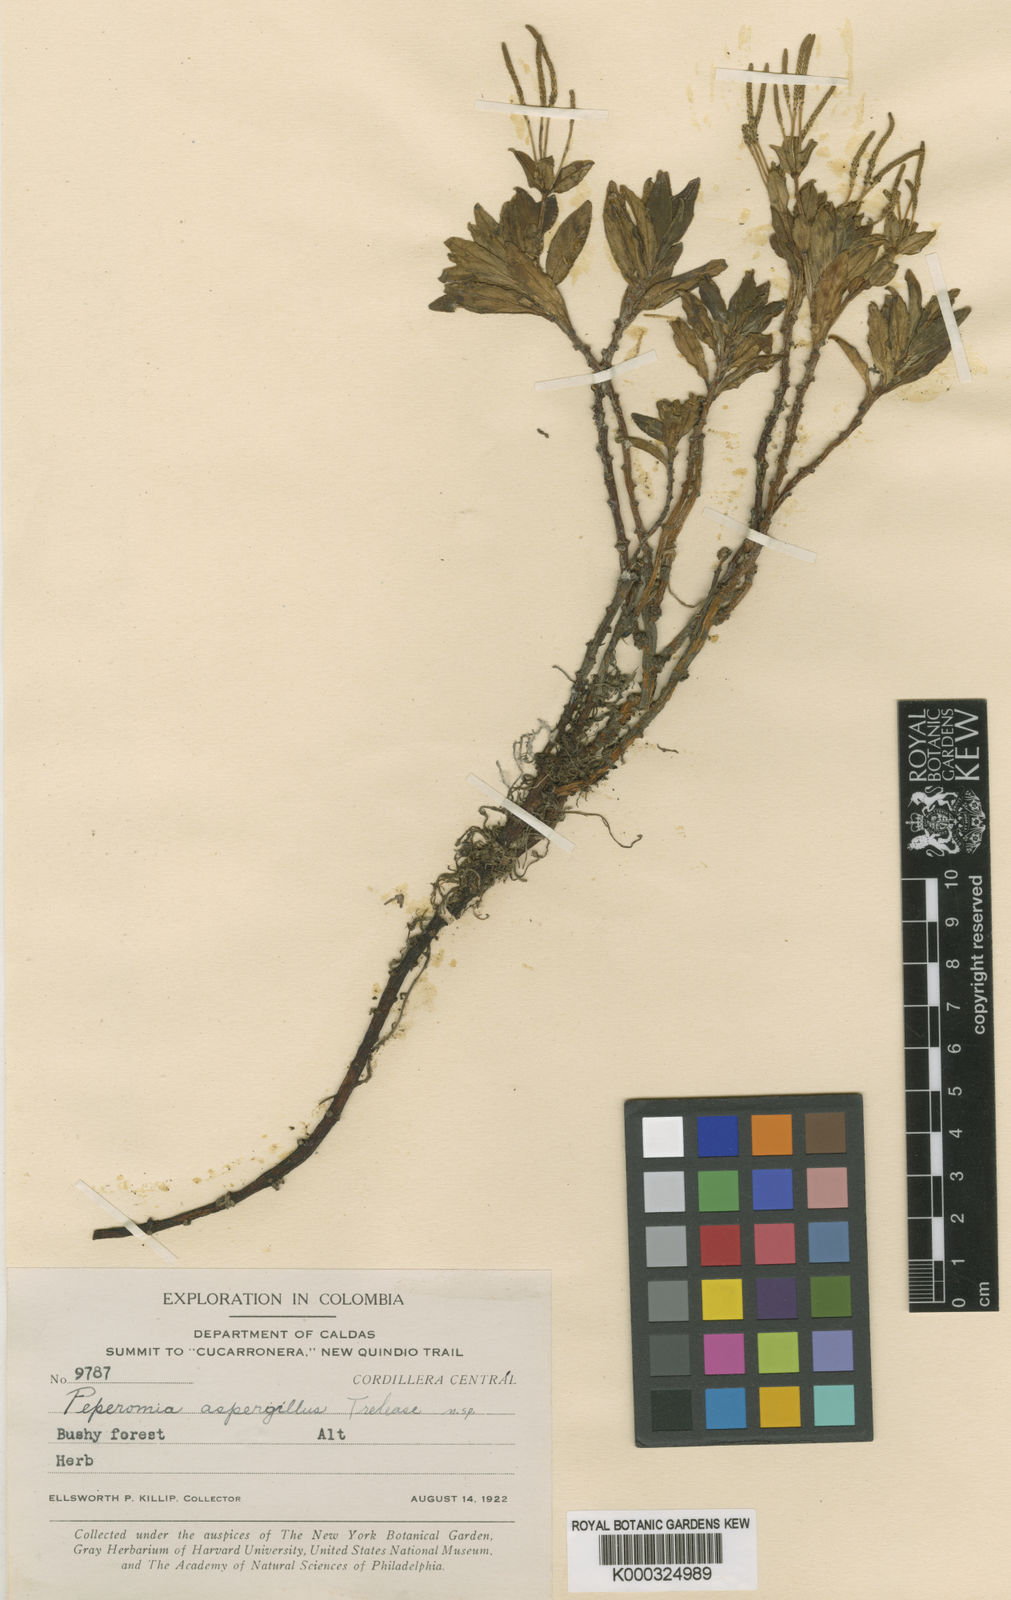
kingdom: Plantae
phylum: Tracheophyta
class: Magnoliopsida
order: Piperales
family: Piperaceae
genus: Peperomia
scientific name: Peperomia saligna
